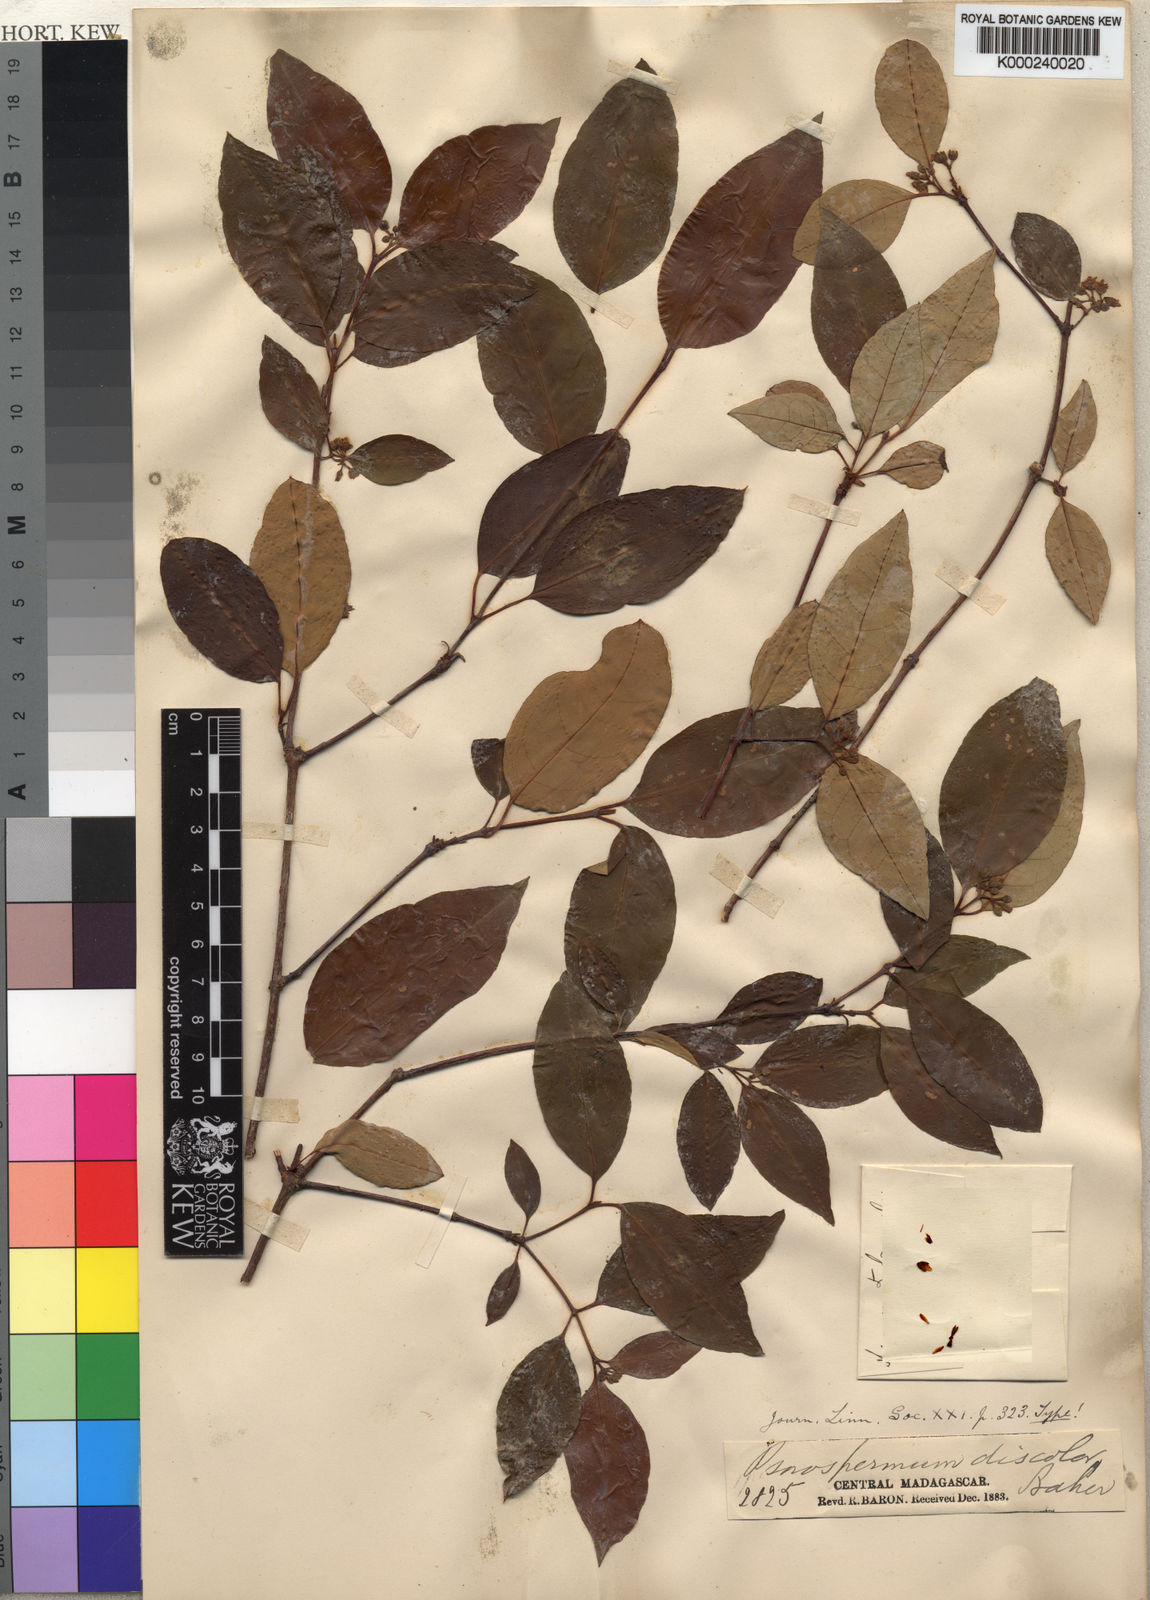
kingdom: Plantae
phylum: Tracheophyta
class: Magnoliopsida
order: Malpighiales
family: Hypericaceae
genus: Psorospermum
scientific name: Psorospermum molluscum
